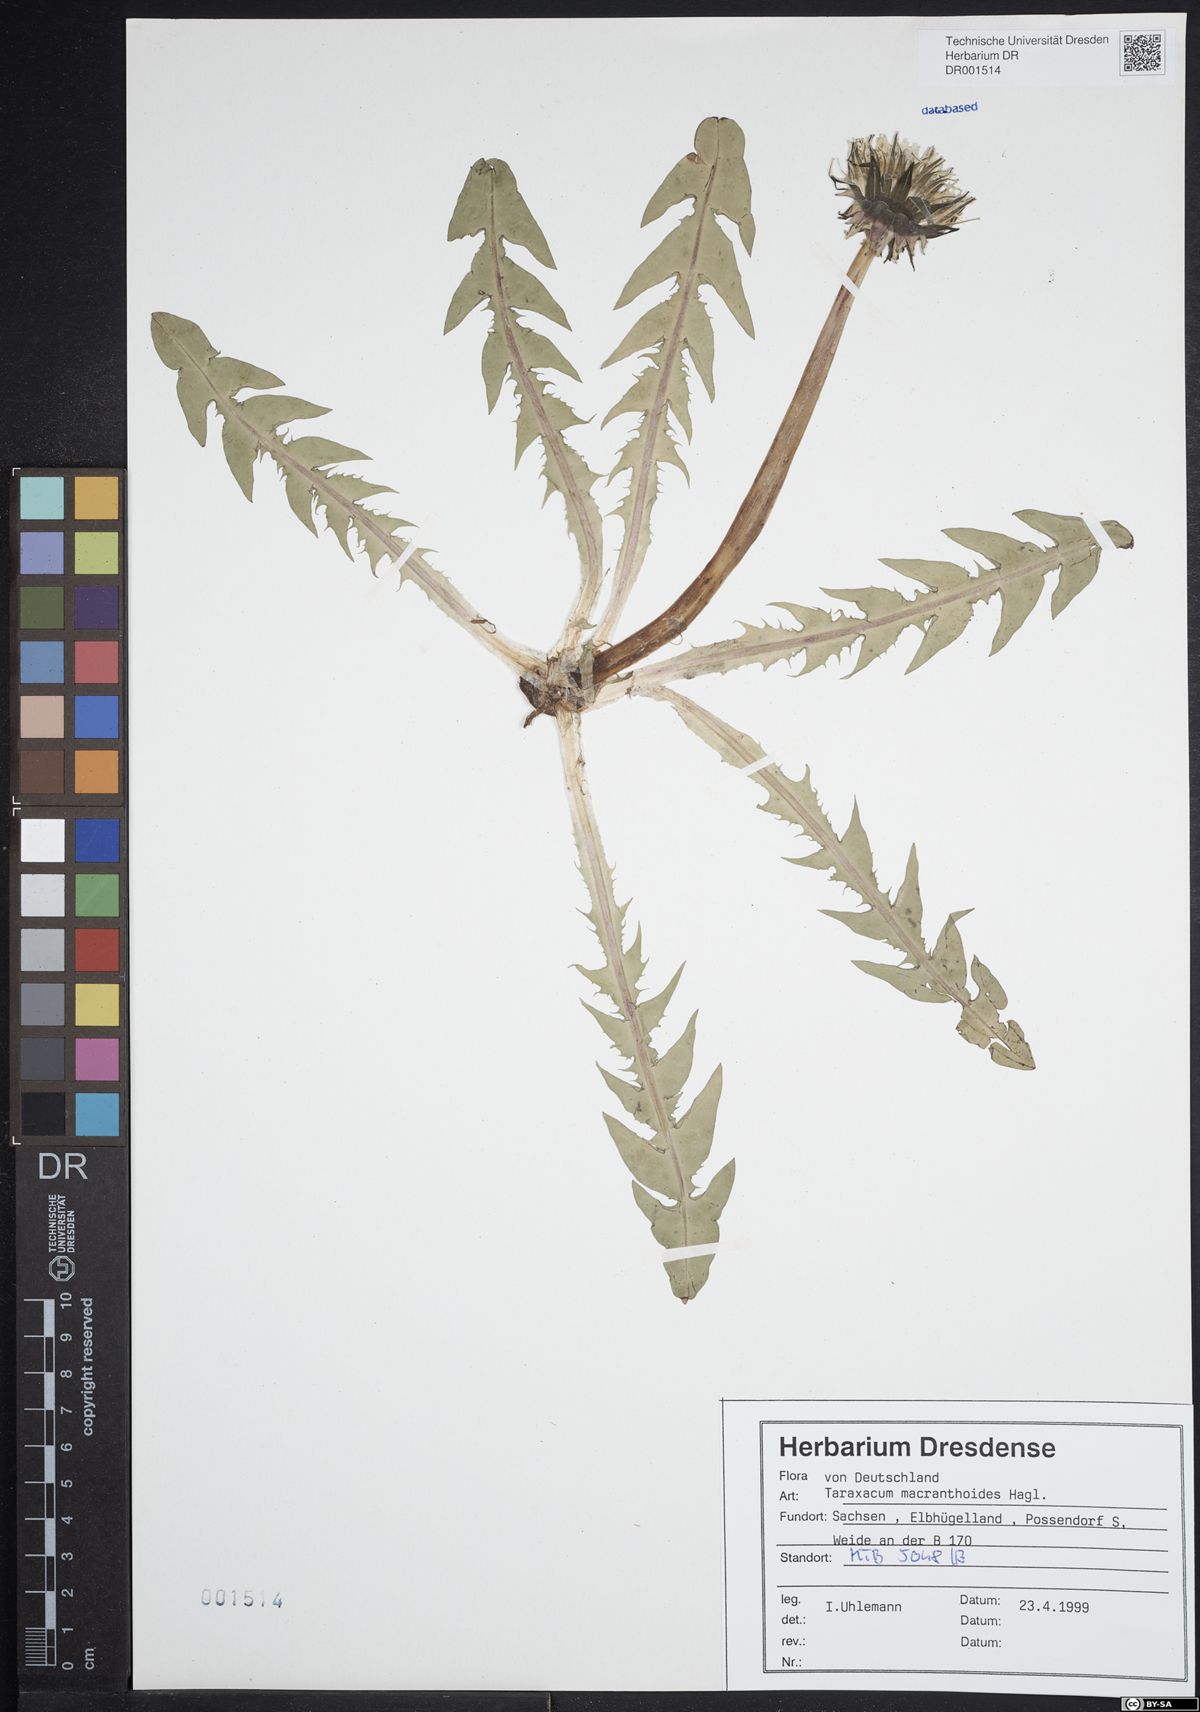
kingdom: Plantae
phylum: Tracheophyta
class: Magnoliopsida
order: Asterales
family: Asteraceae
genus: Taraxacum
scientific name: Taraxacum macranthoides
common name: Large-flowered dandelion
